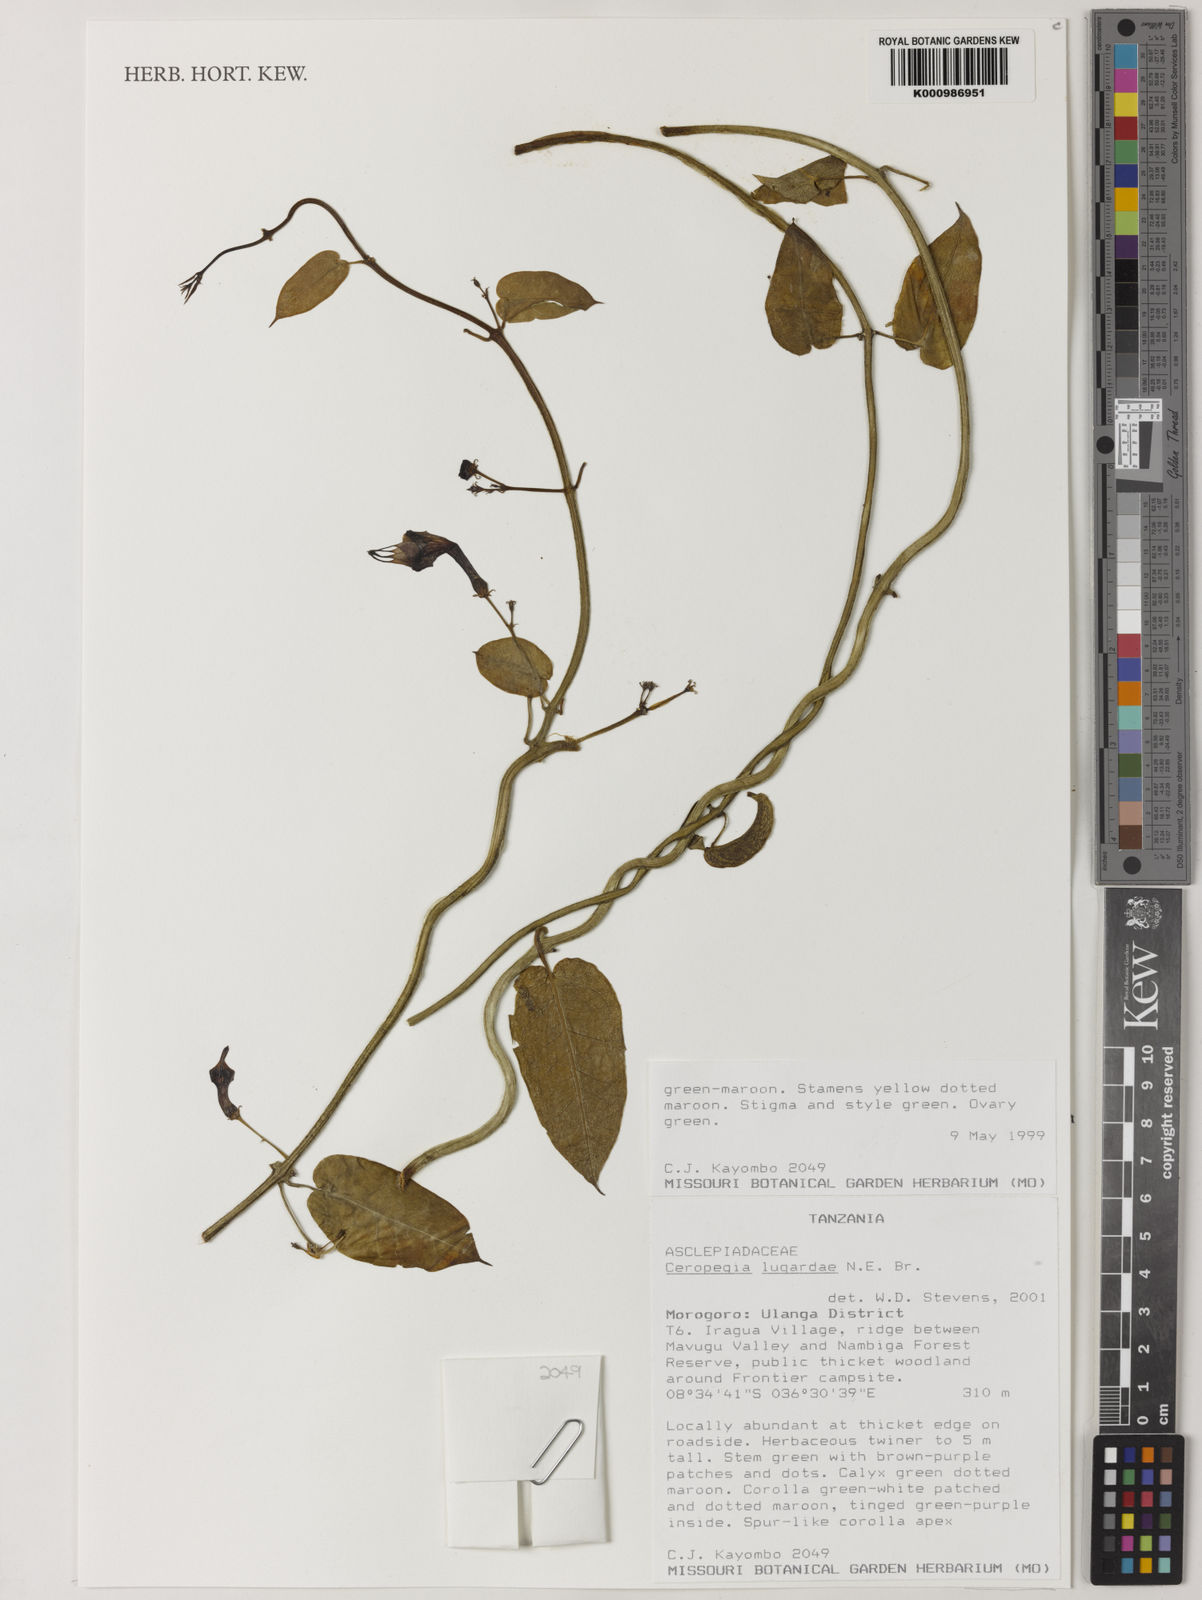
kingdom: Plantae
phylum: Tracheophyta
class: Magnoliopsida
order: Gentianales
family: Apocynaceae
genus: Ceropegia
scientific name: Ceropegia lugardiae
